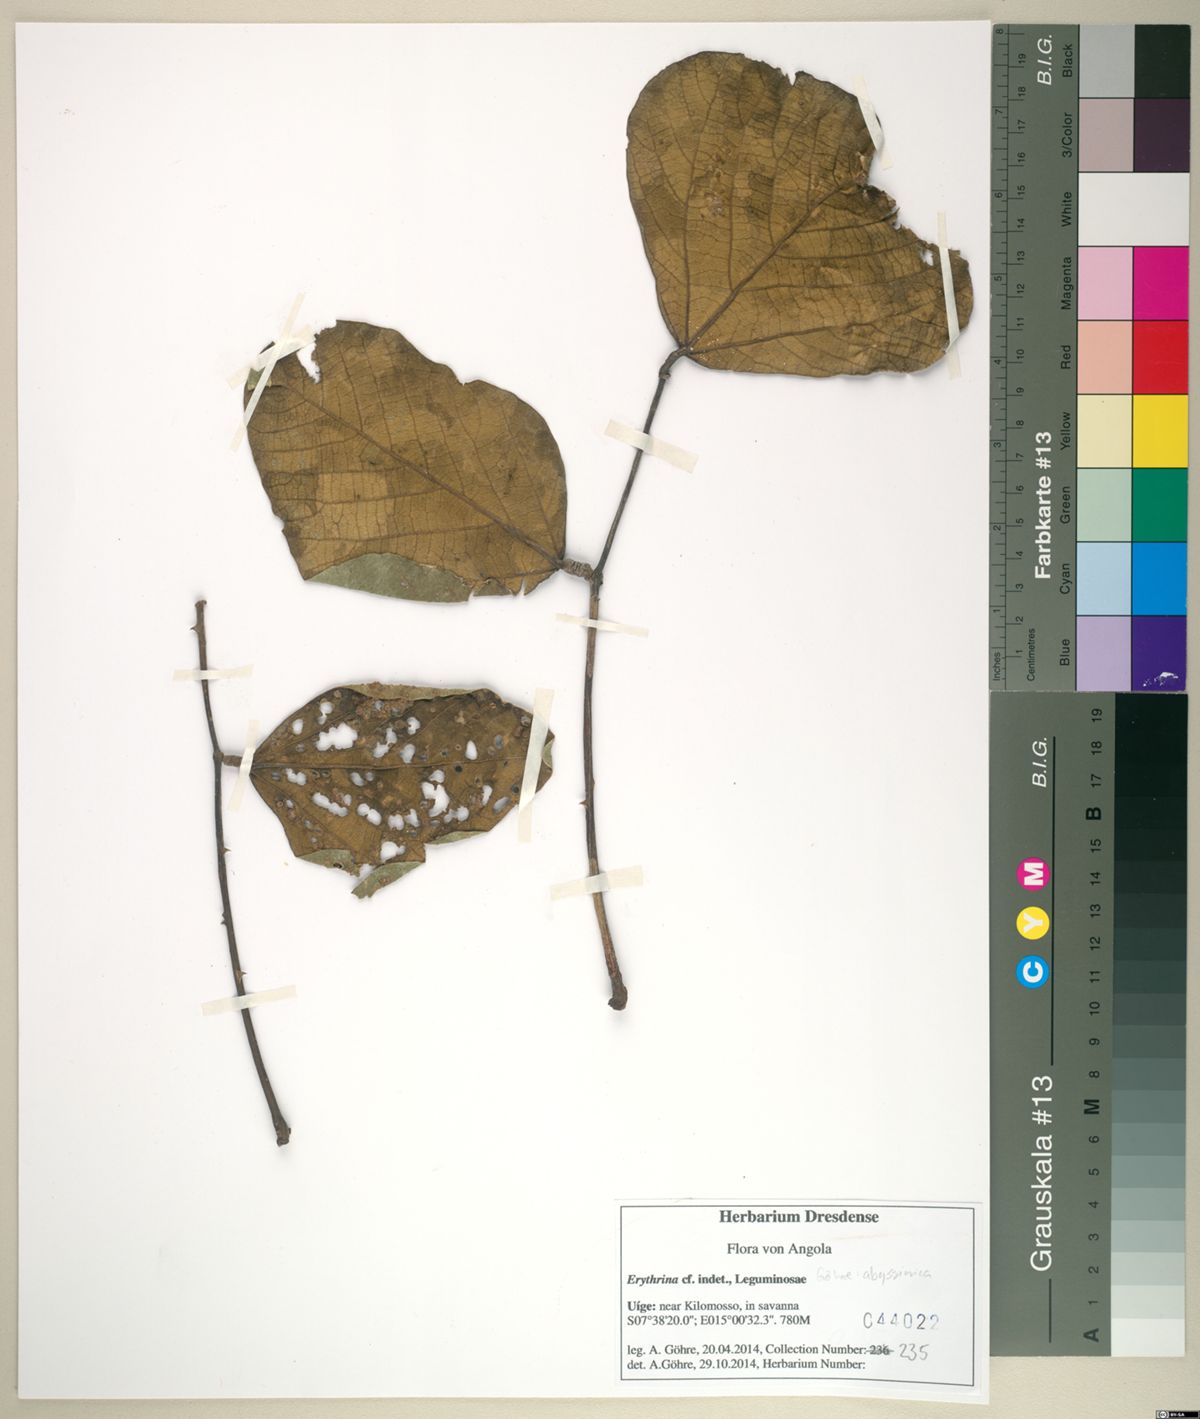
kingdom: Plantae
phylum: Tracheophyta
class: Magnoliopsida
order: Fabales
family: Fabaceae
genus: Erythrina
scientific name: Erythrina
